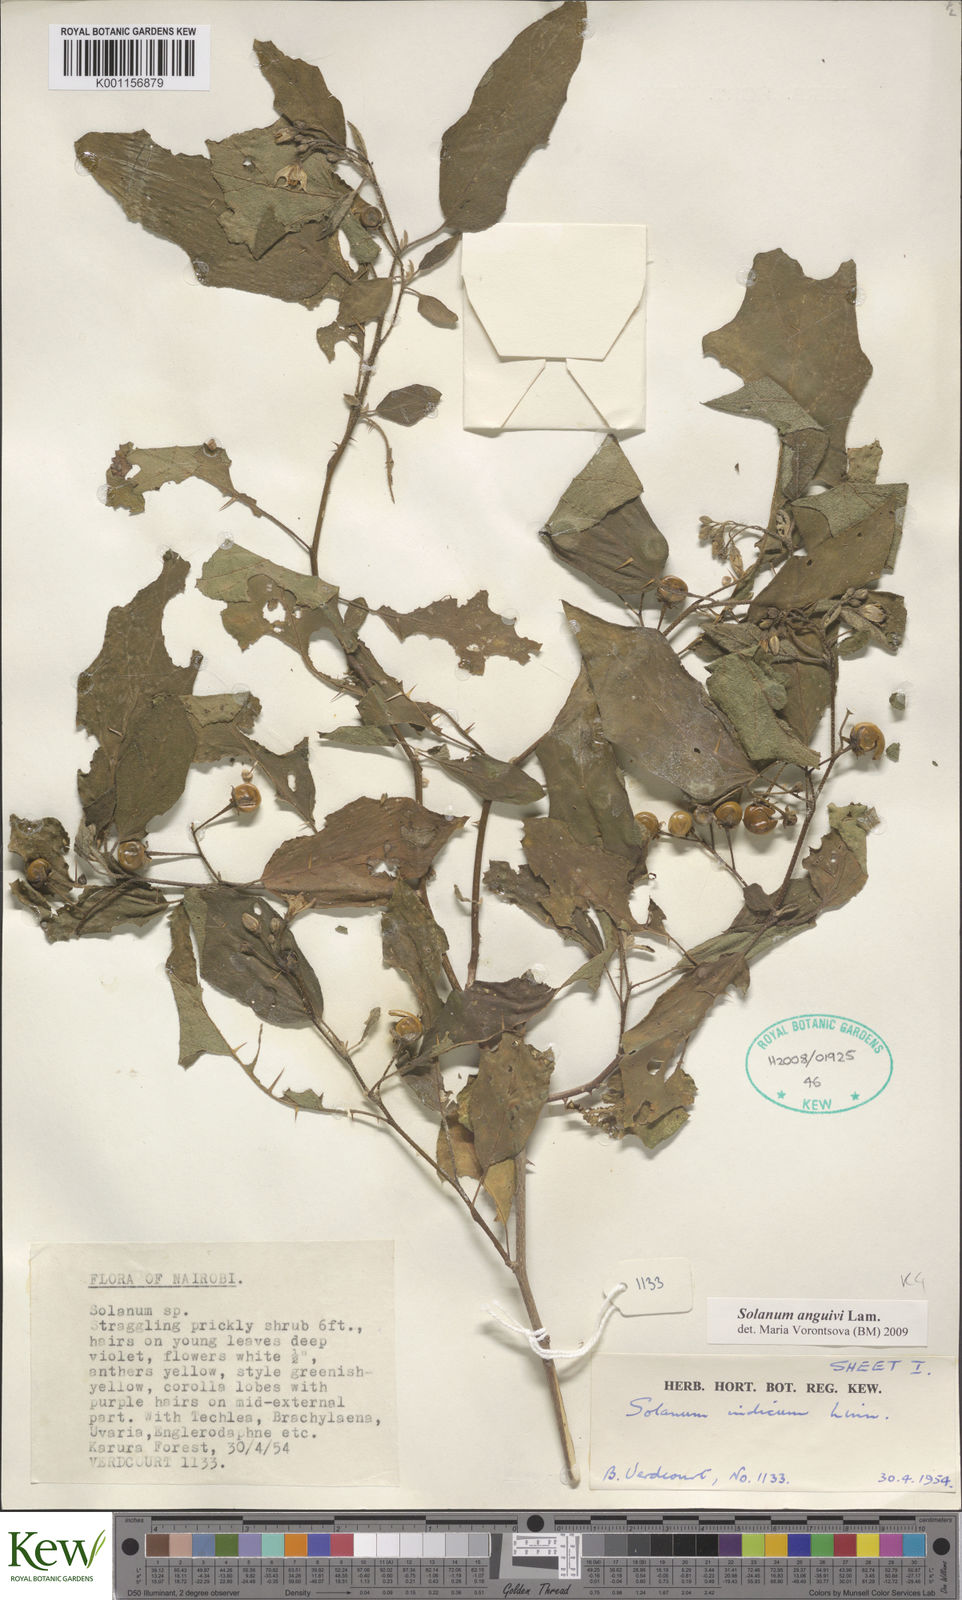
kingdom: Plantae
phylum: Tracheophyta
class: Magnoliopsida
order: Solanales
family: Solanaceae
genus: Solanum
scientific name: Solanum anguivi
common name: Forest bitterberry
